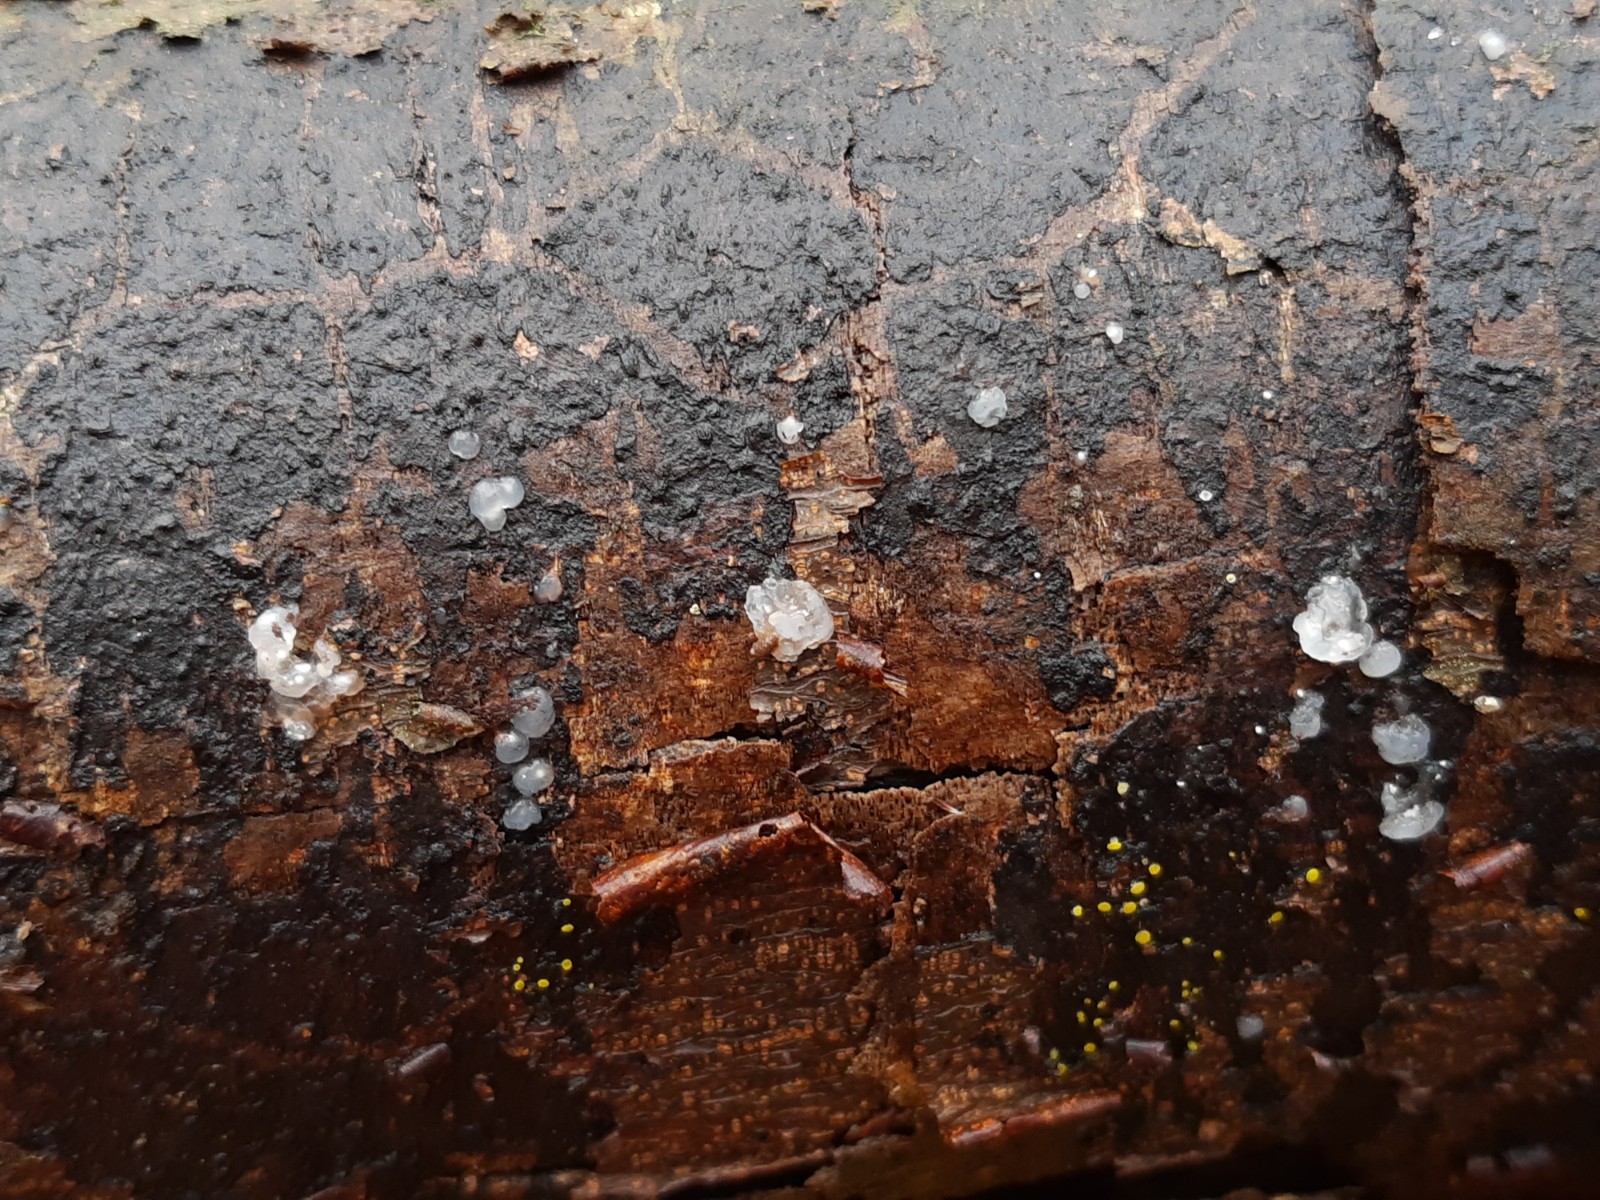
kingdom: Fungi
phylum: Basidiomycota
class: Agaricomycetes
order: Auriculariales
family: Hyaloriaceae
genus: Myxarium
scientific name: Myxarium nucleatum
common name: klar bævretop
